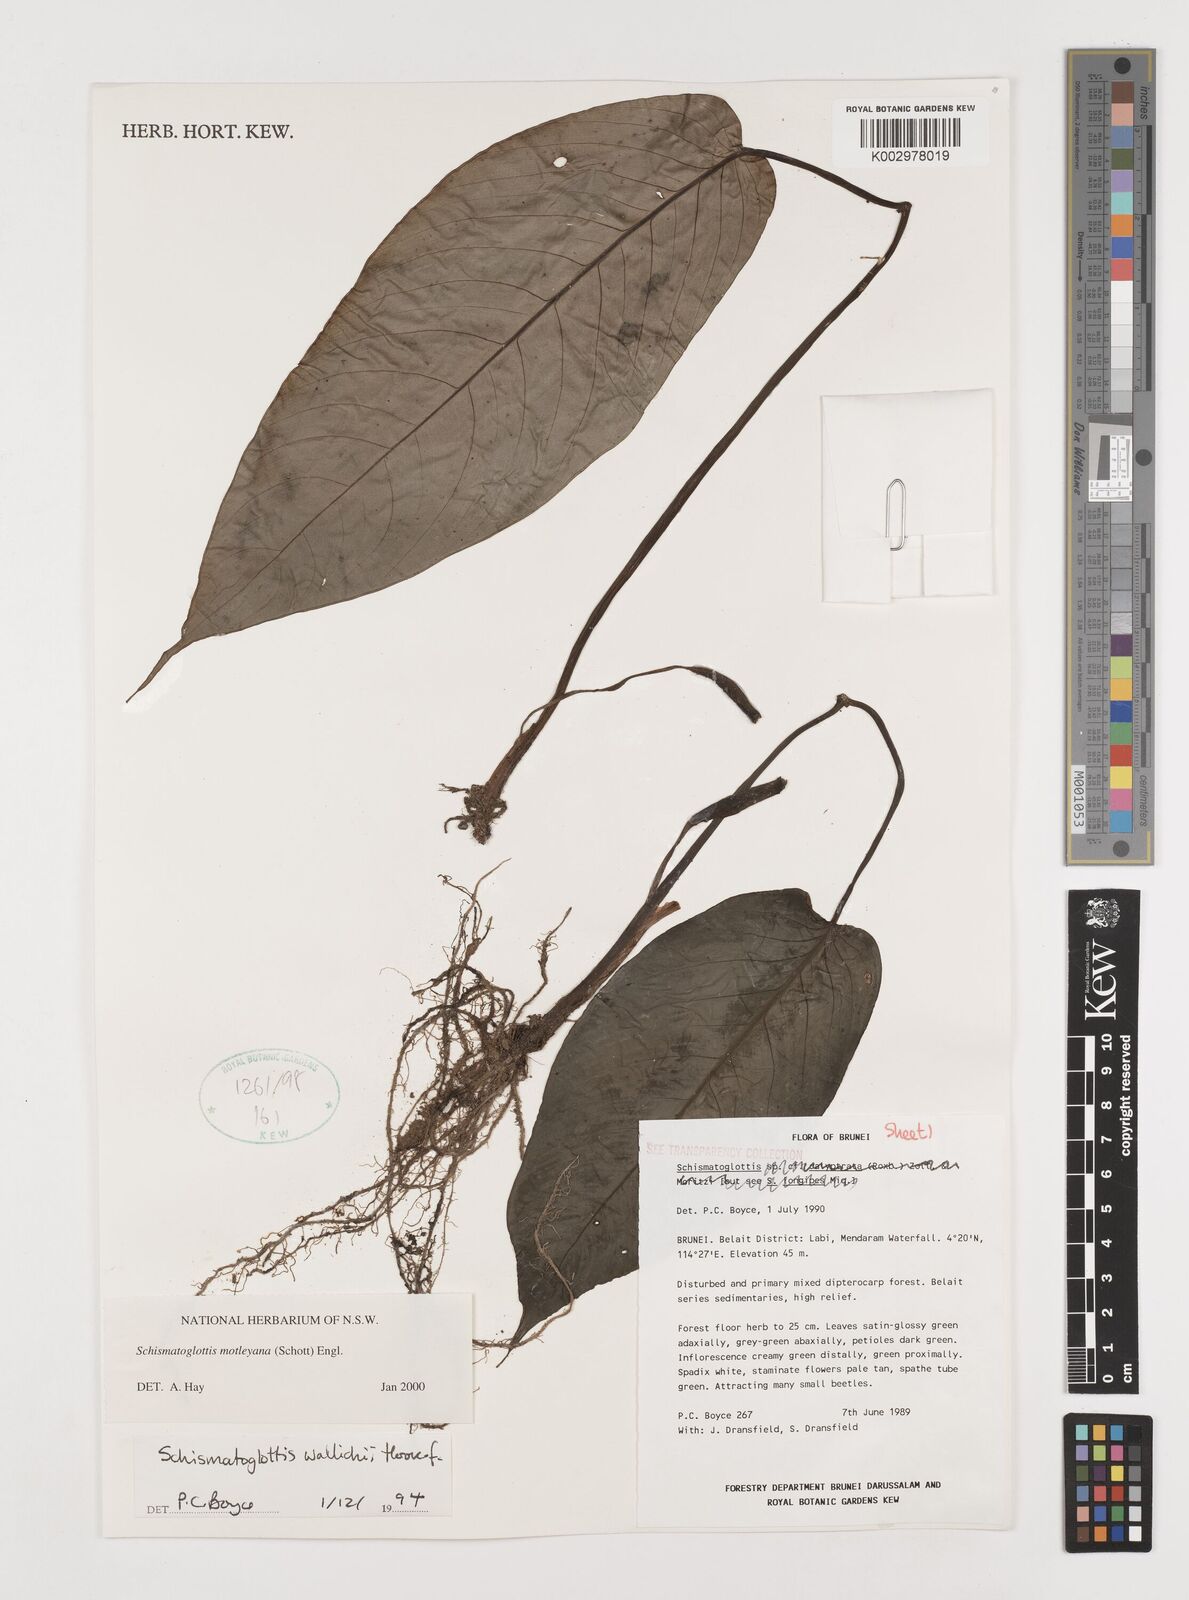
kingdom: Plantae
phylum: Tracheophyta
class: Liliopsida
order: Alismatales
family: Araceae
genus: Schismatoglottis
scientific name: Schismatoglottis motleyana
